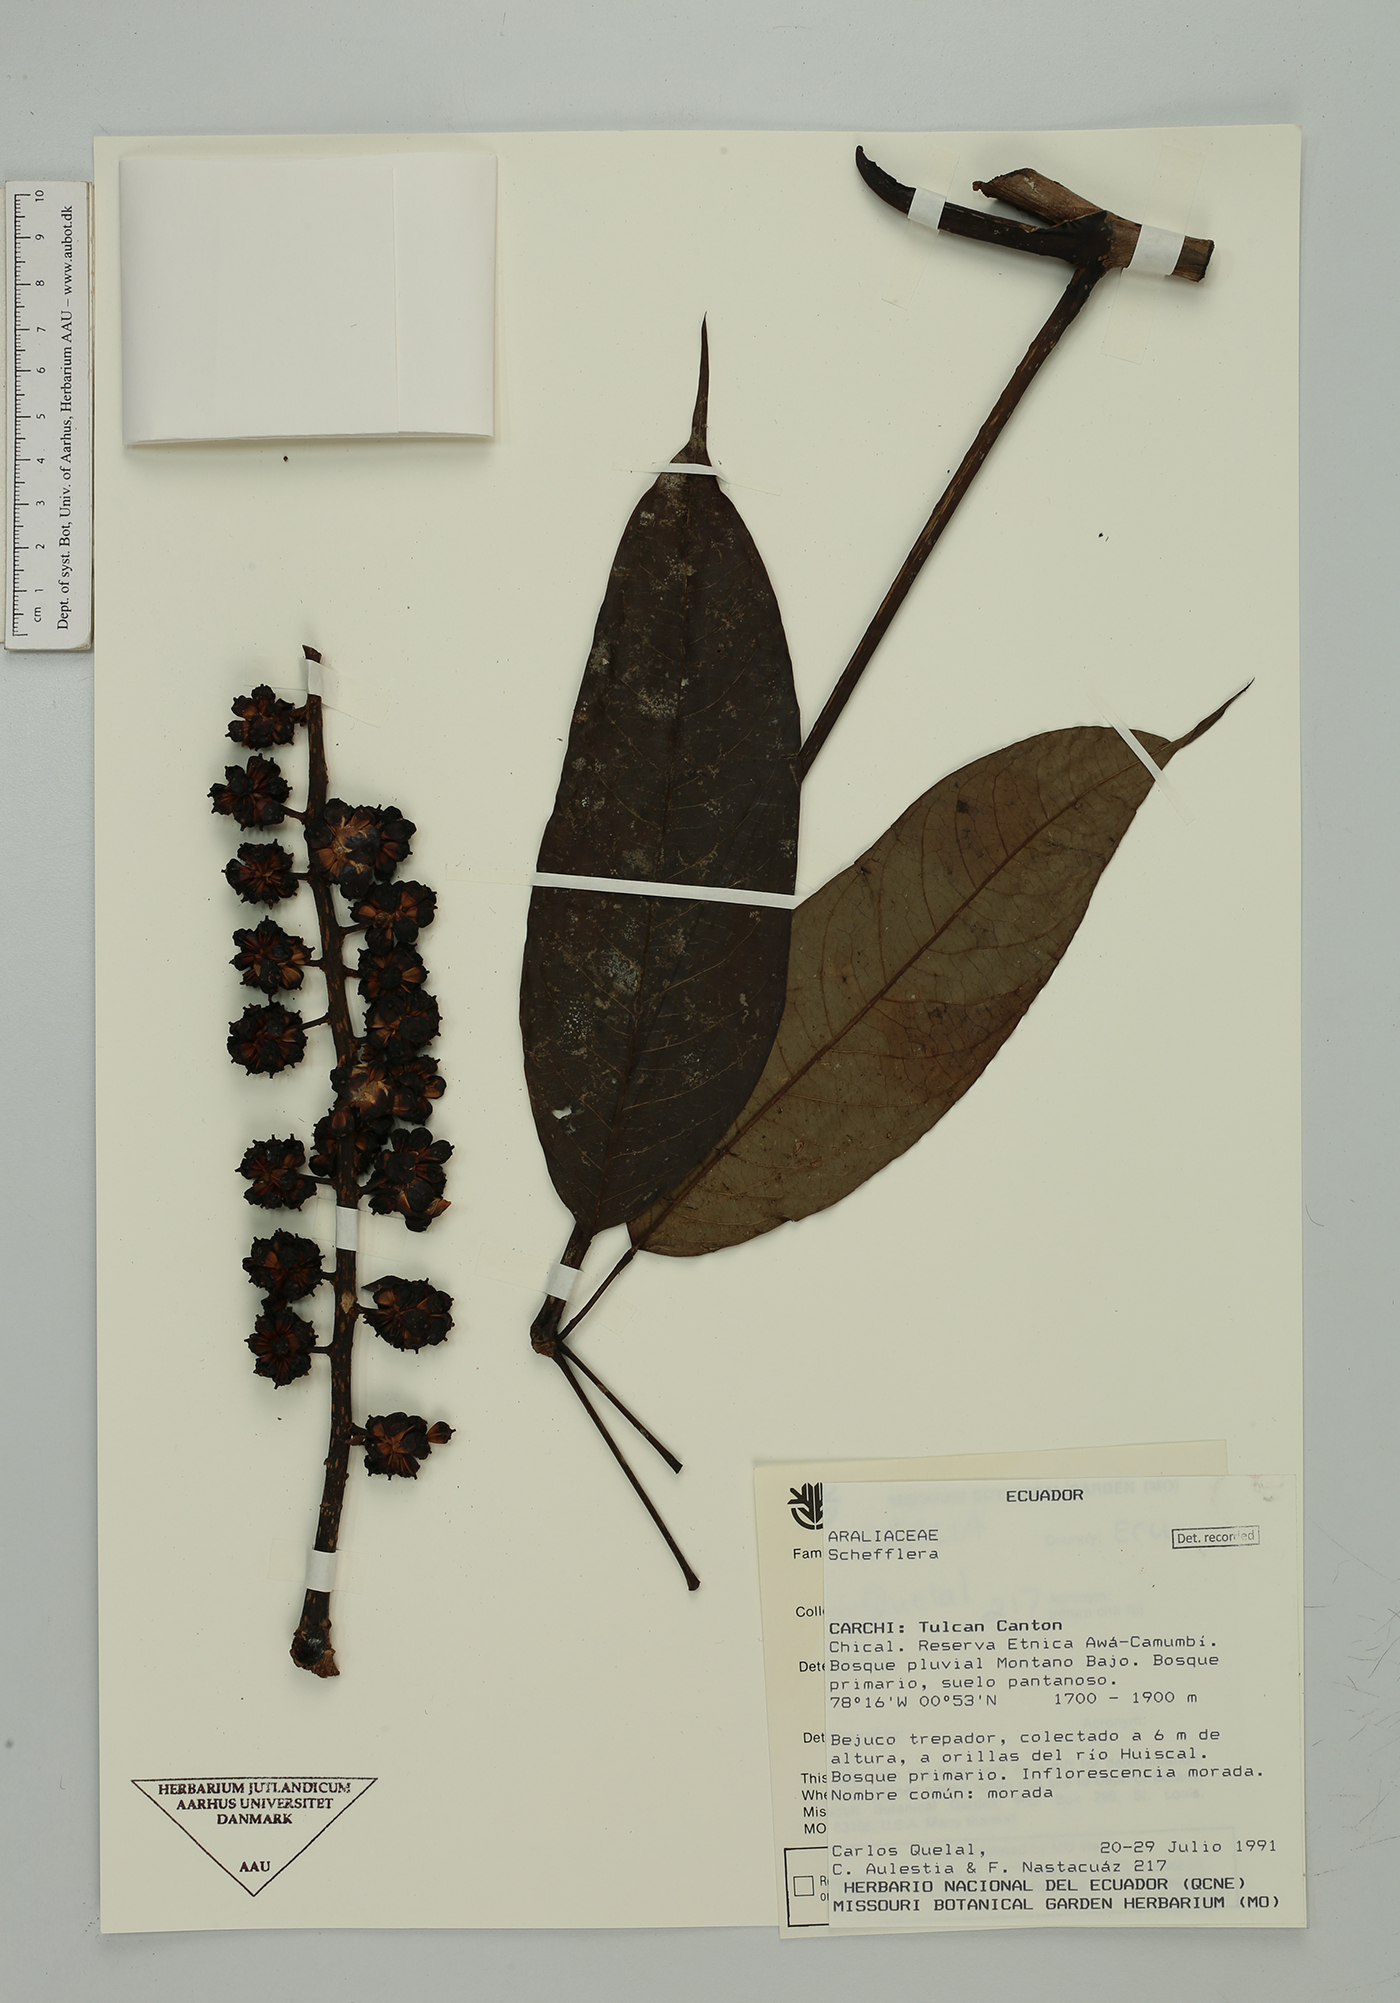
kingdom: Plantae
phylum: Tracheophyta
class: Magnoliopsida
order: Apiales
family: Araliaceae
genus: Sciodaphyllum
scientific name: Sciodaphyllum
